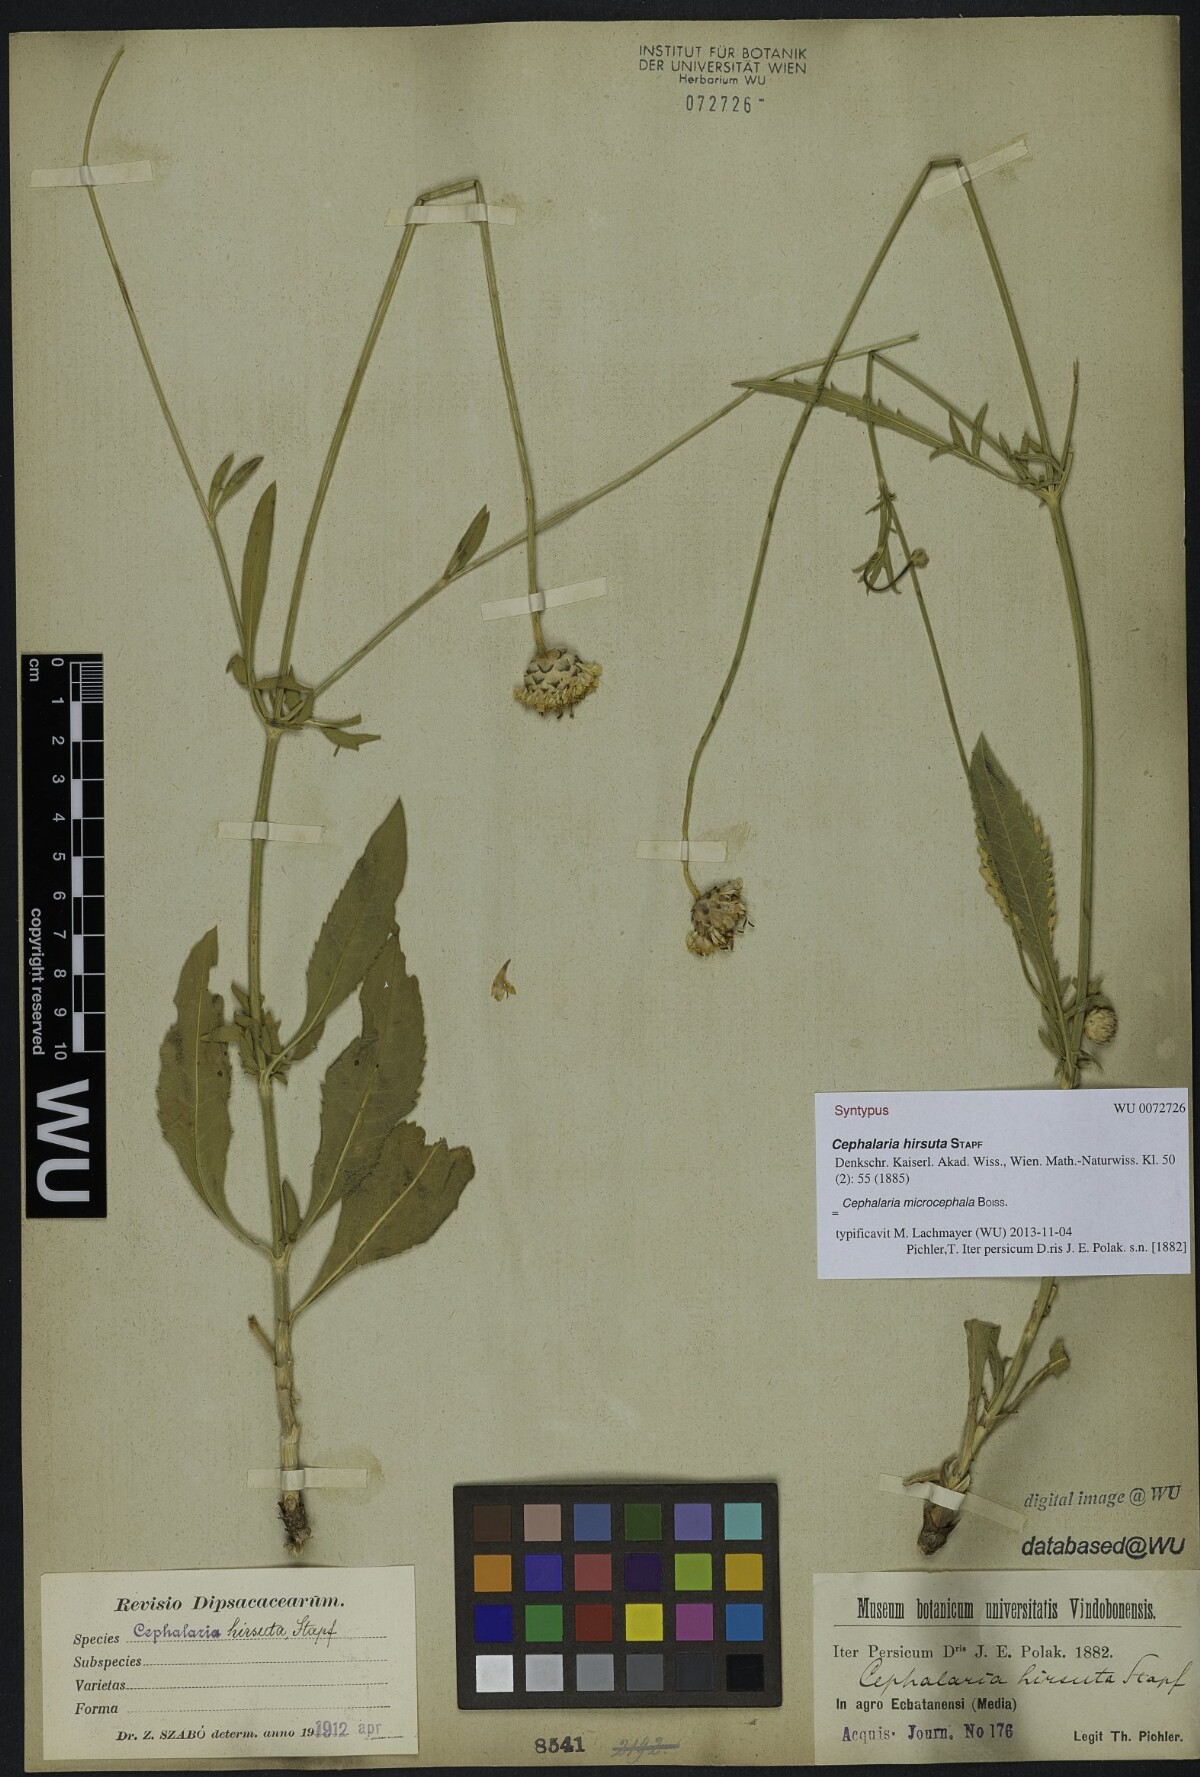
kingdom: Plantae
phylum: Tracheophyta
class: Magnoliopsida
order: Dipsacales
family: Caprifoliaceae
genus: Cephalaria
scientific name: Cephalaria hirsuta
